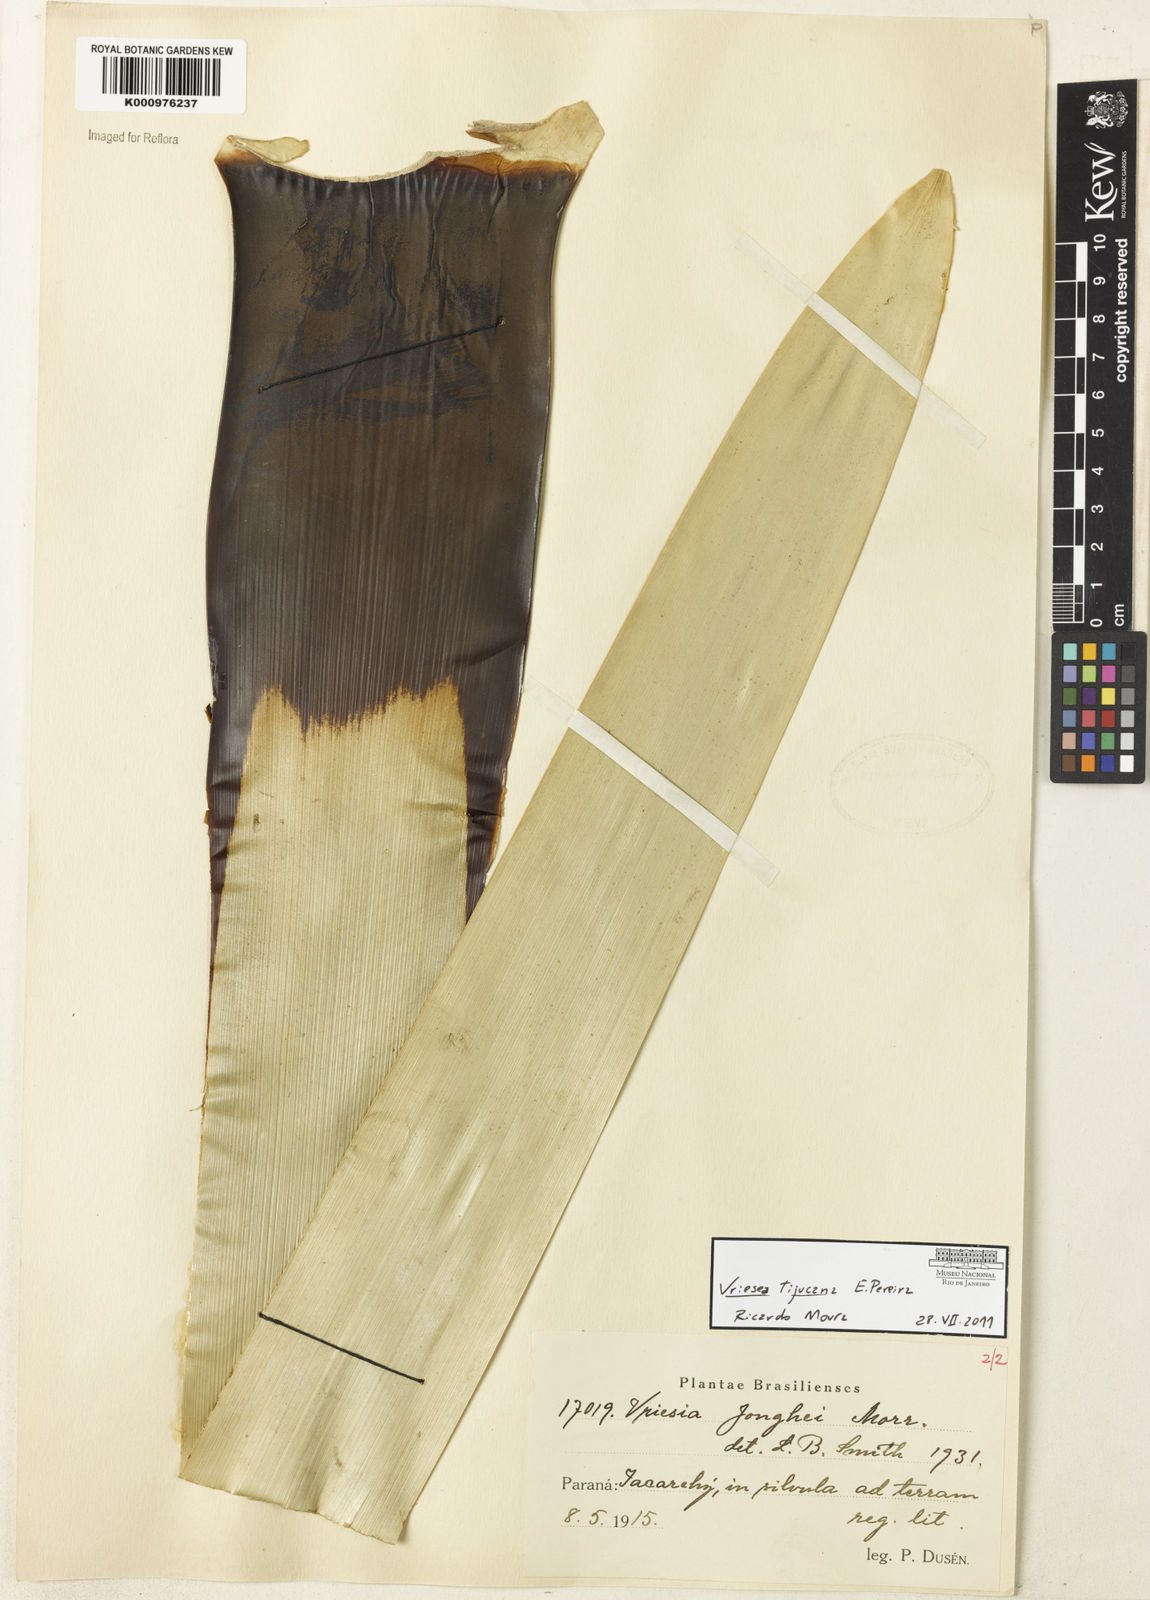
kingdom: Plantae
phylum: Tracheophyta
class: Liliopsida
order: Poales
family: Bromeliaceae
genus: Vriesea
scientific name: Vriesea tijucana
